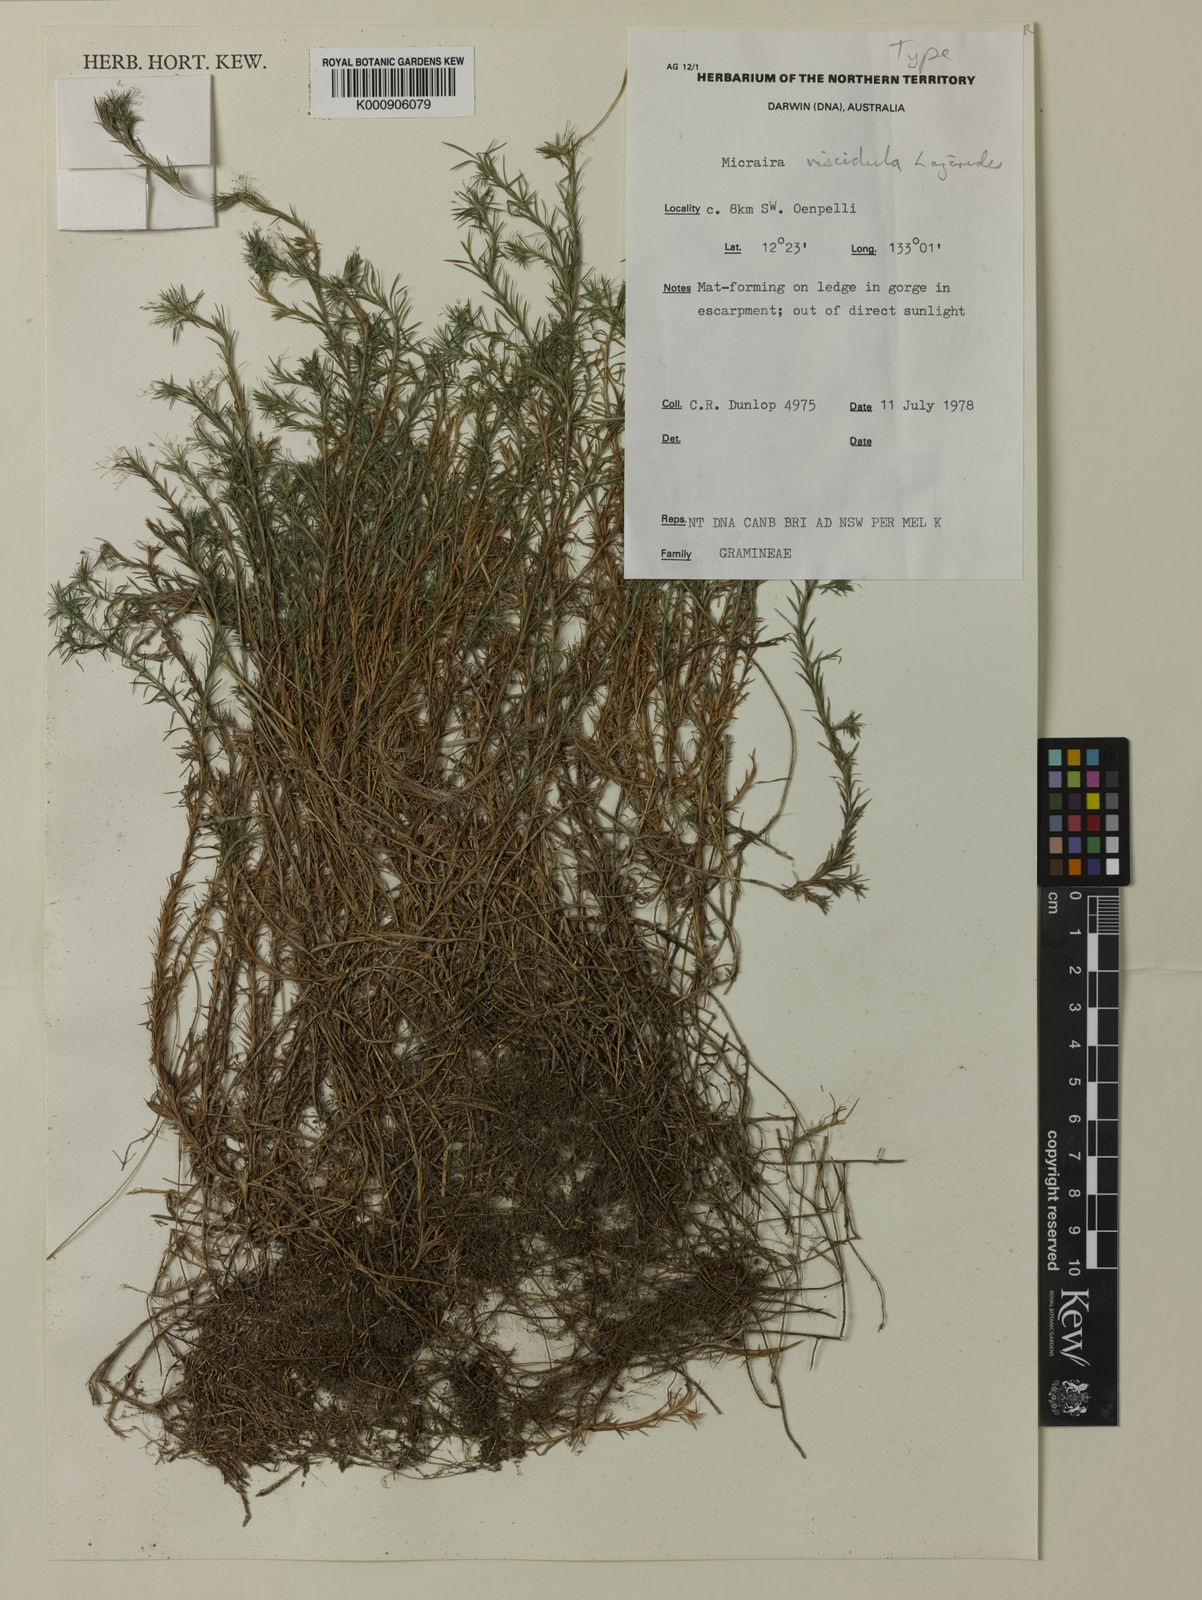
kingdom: Plantae
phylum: Tracheophyta
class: Liliopsida
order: Poales
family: Poaceae
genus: Micraira
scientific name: Micraira viscidula
